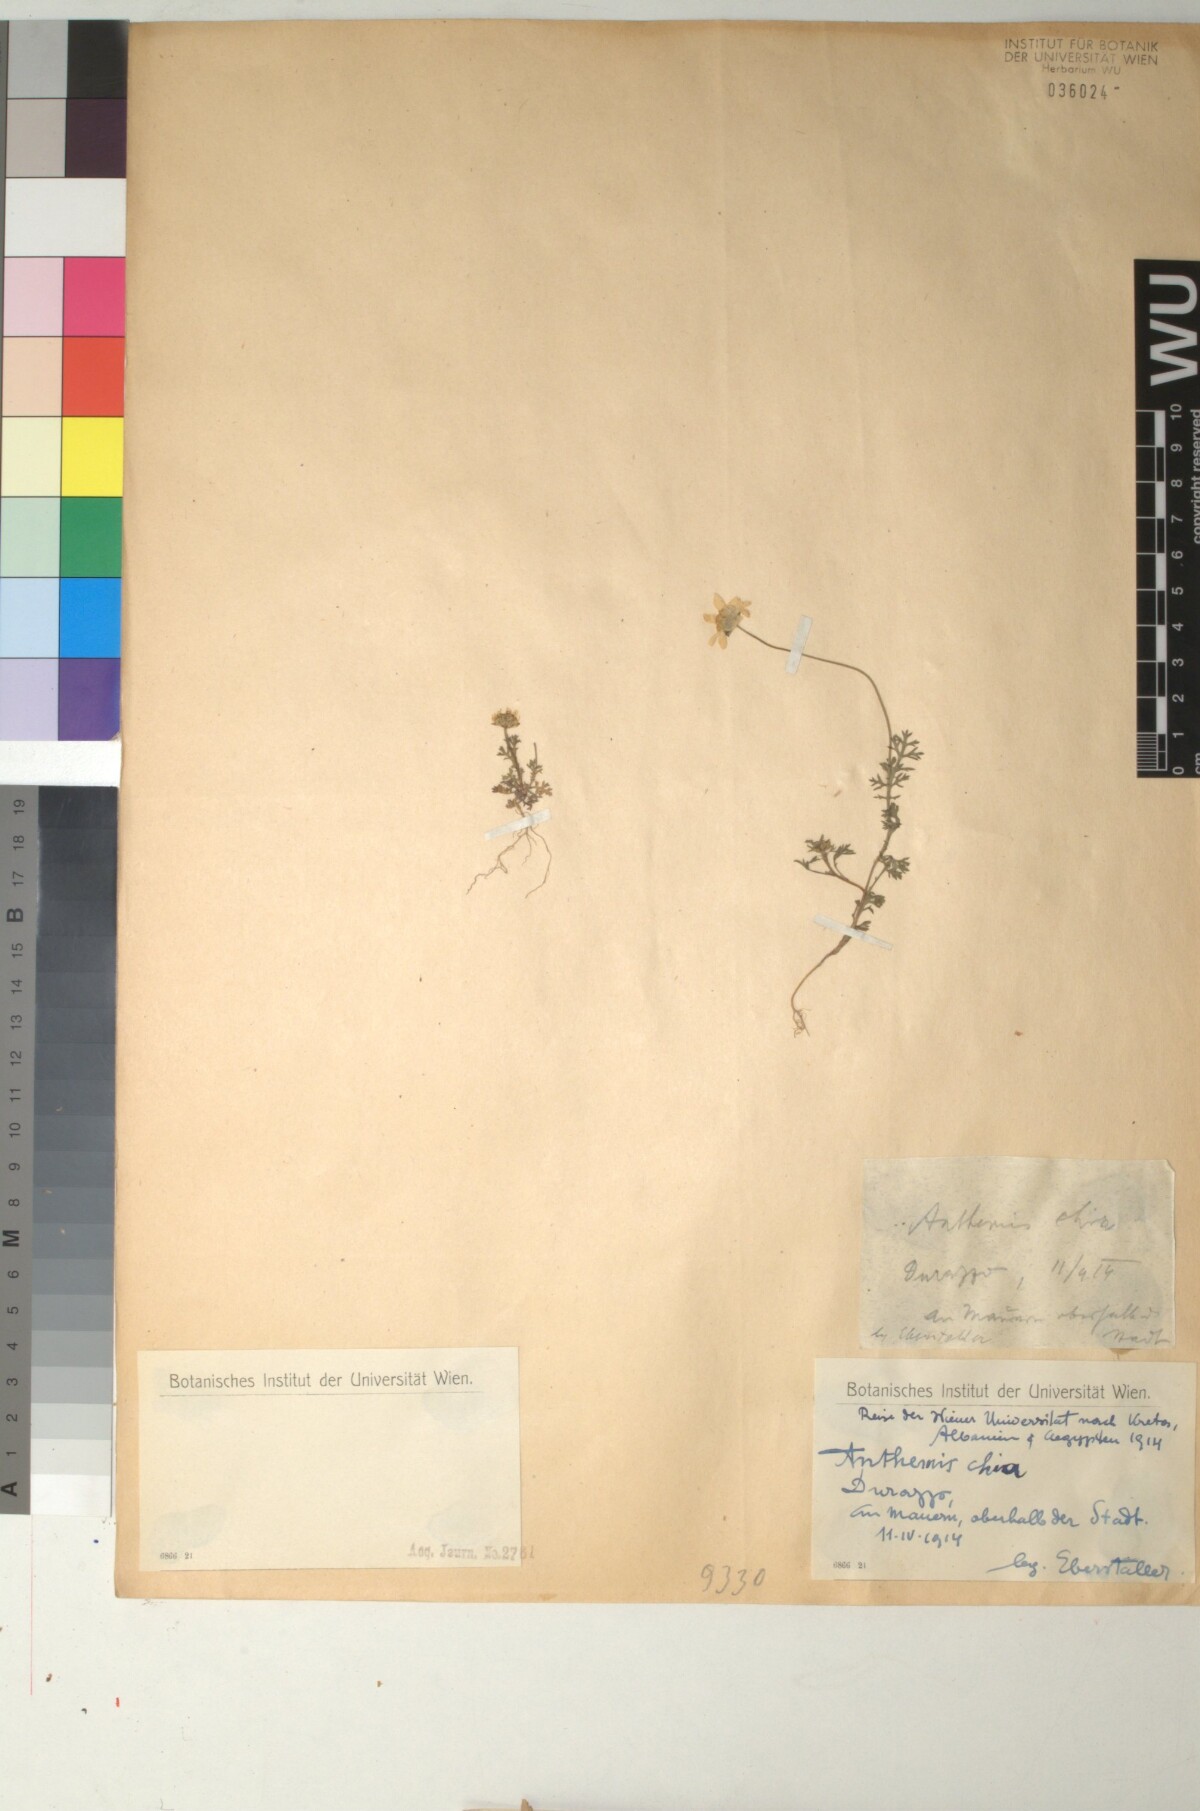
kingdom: Plantae
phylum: Tracheophyta
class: Magnoliopsida
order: Asterales
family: Asteraceae
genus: Anthemis
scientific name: Anthemis chia
